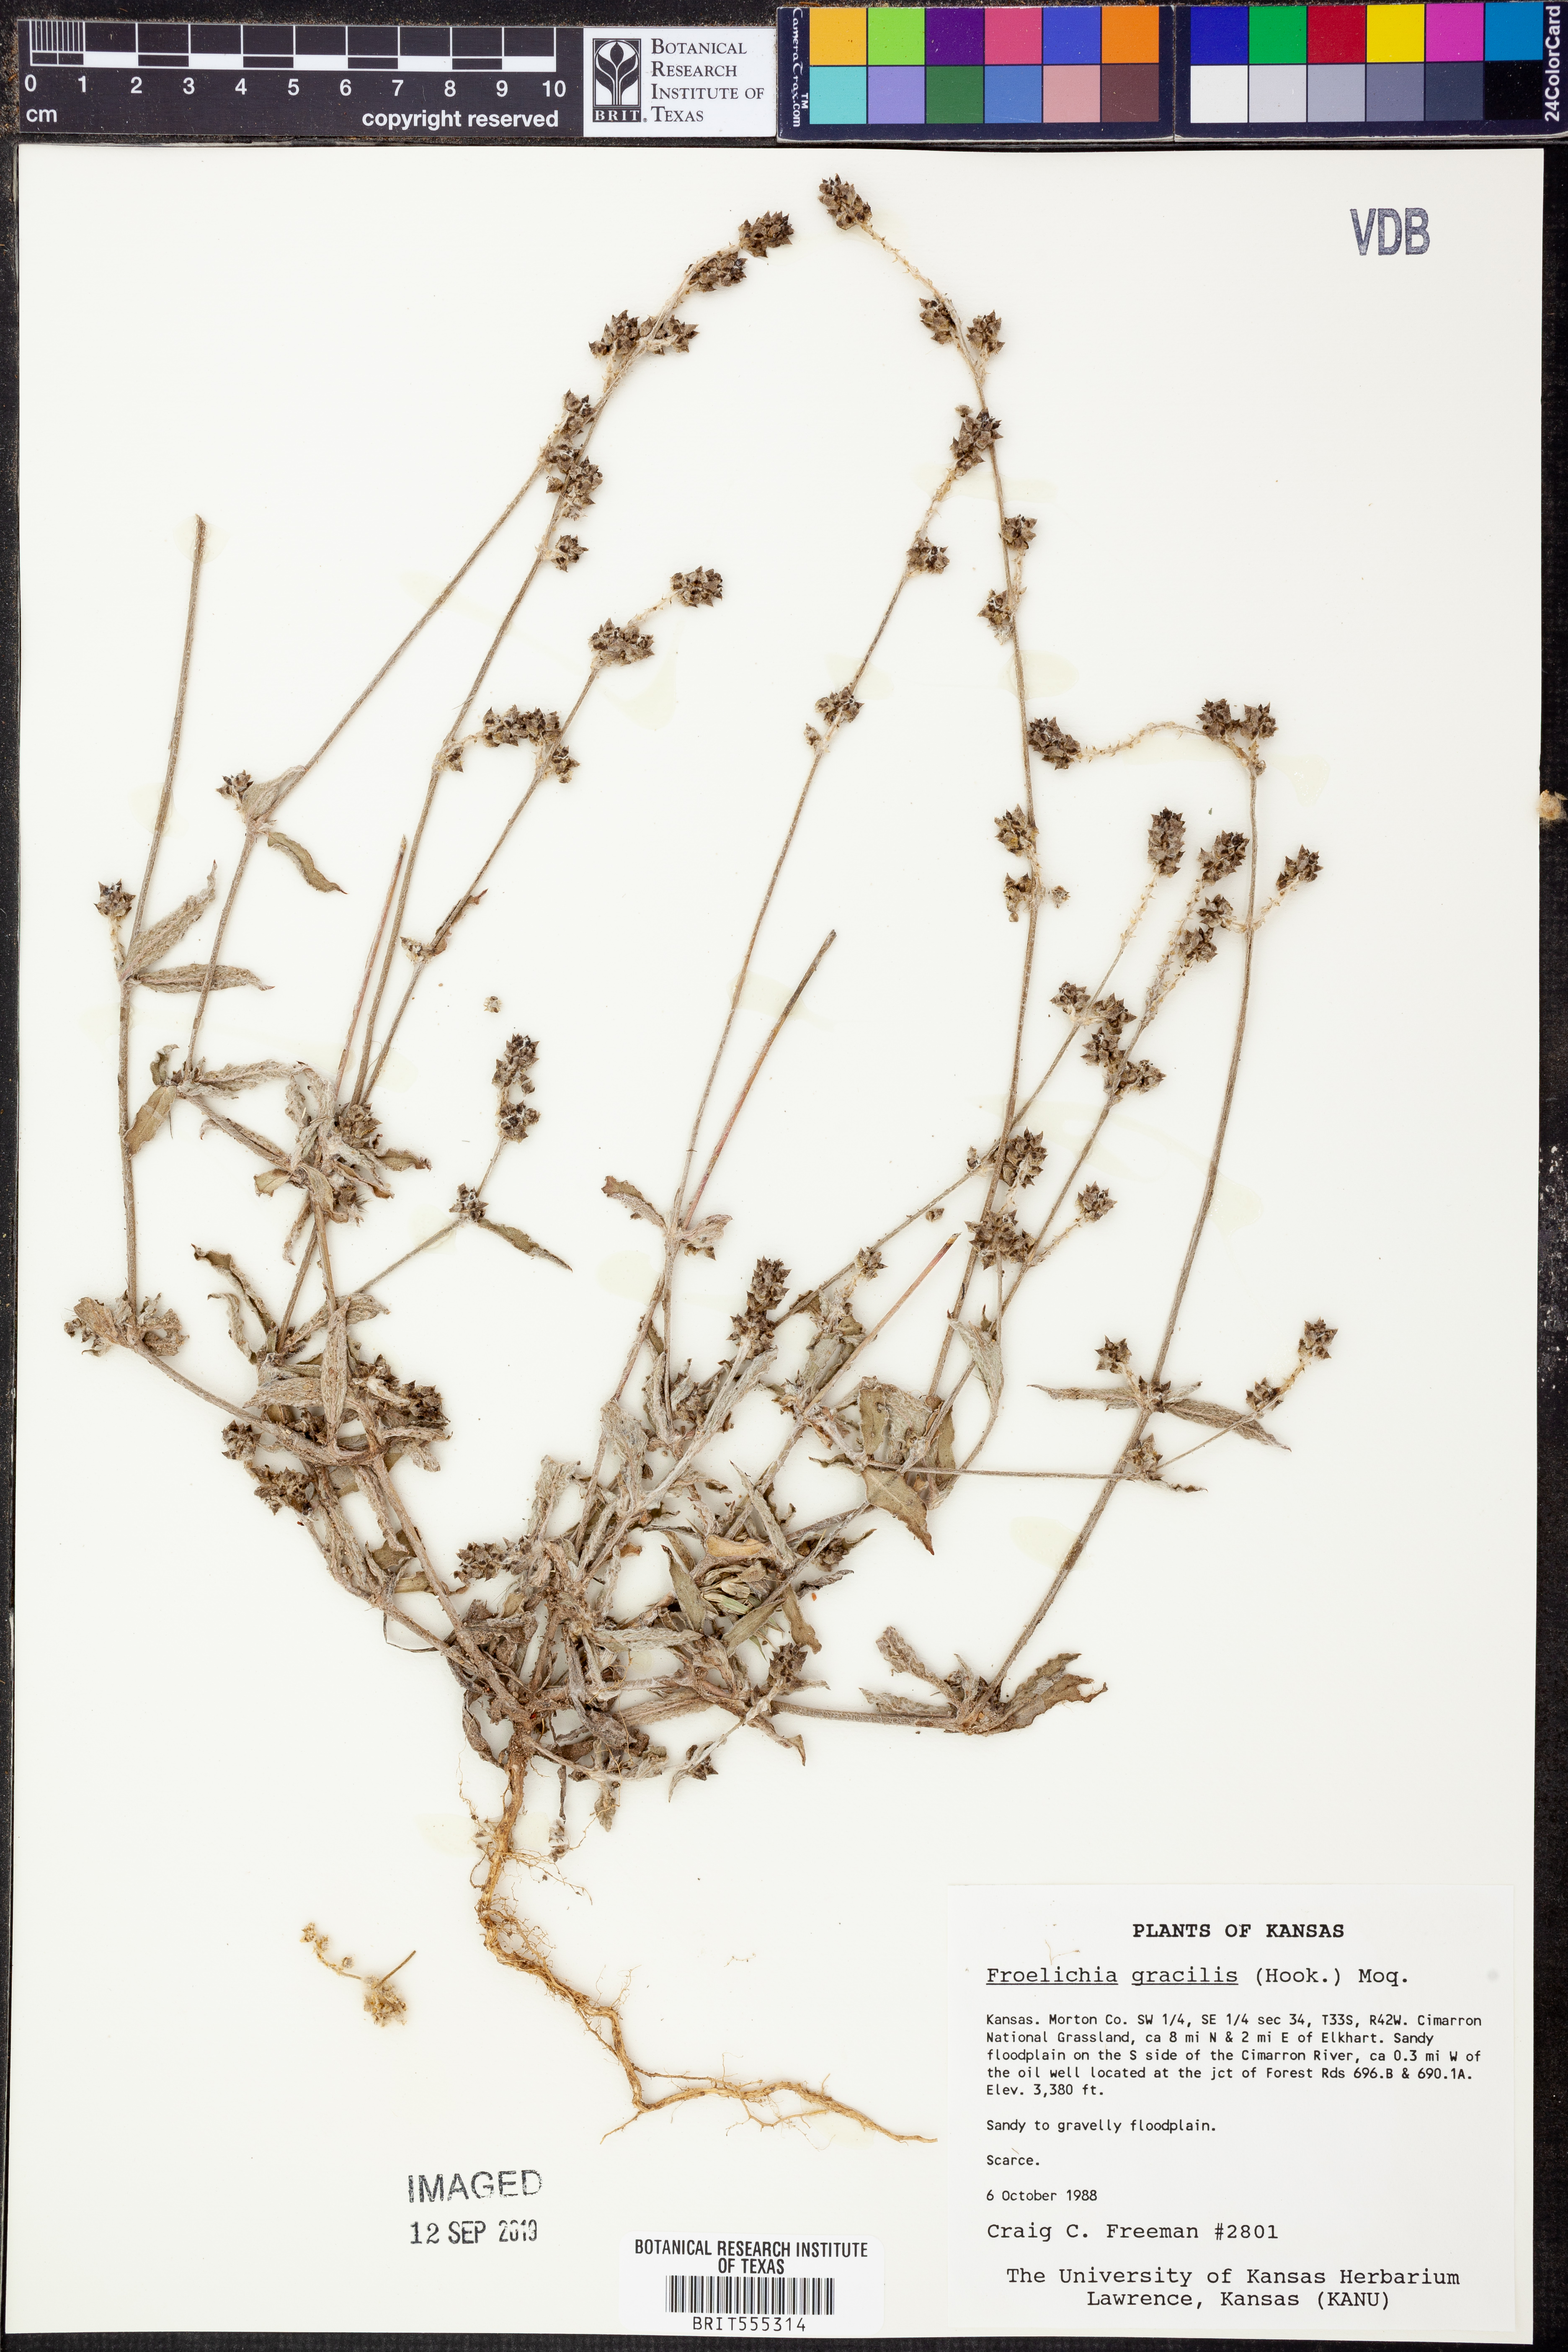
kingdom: Plantae
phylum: Tracheophyta
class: Magnoliopsida
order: Caryophyllales
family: Amaranthaceae
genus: Froelichia
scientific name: Froelichia gracilis
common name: Slender cottonweed
